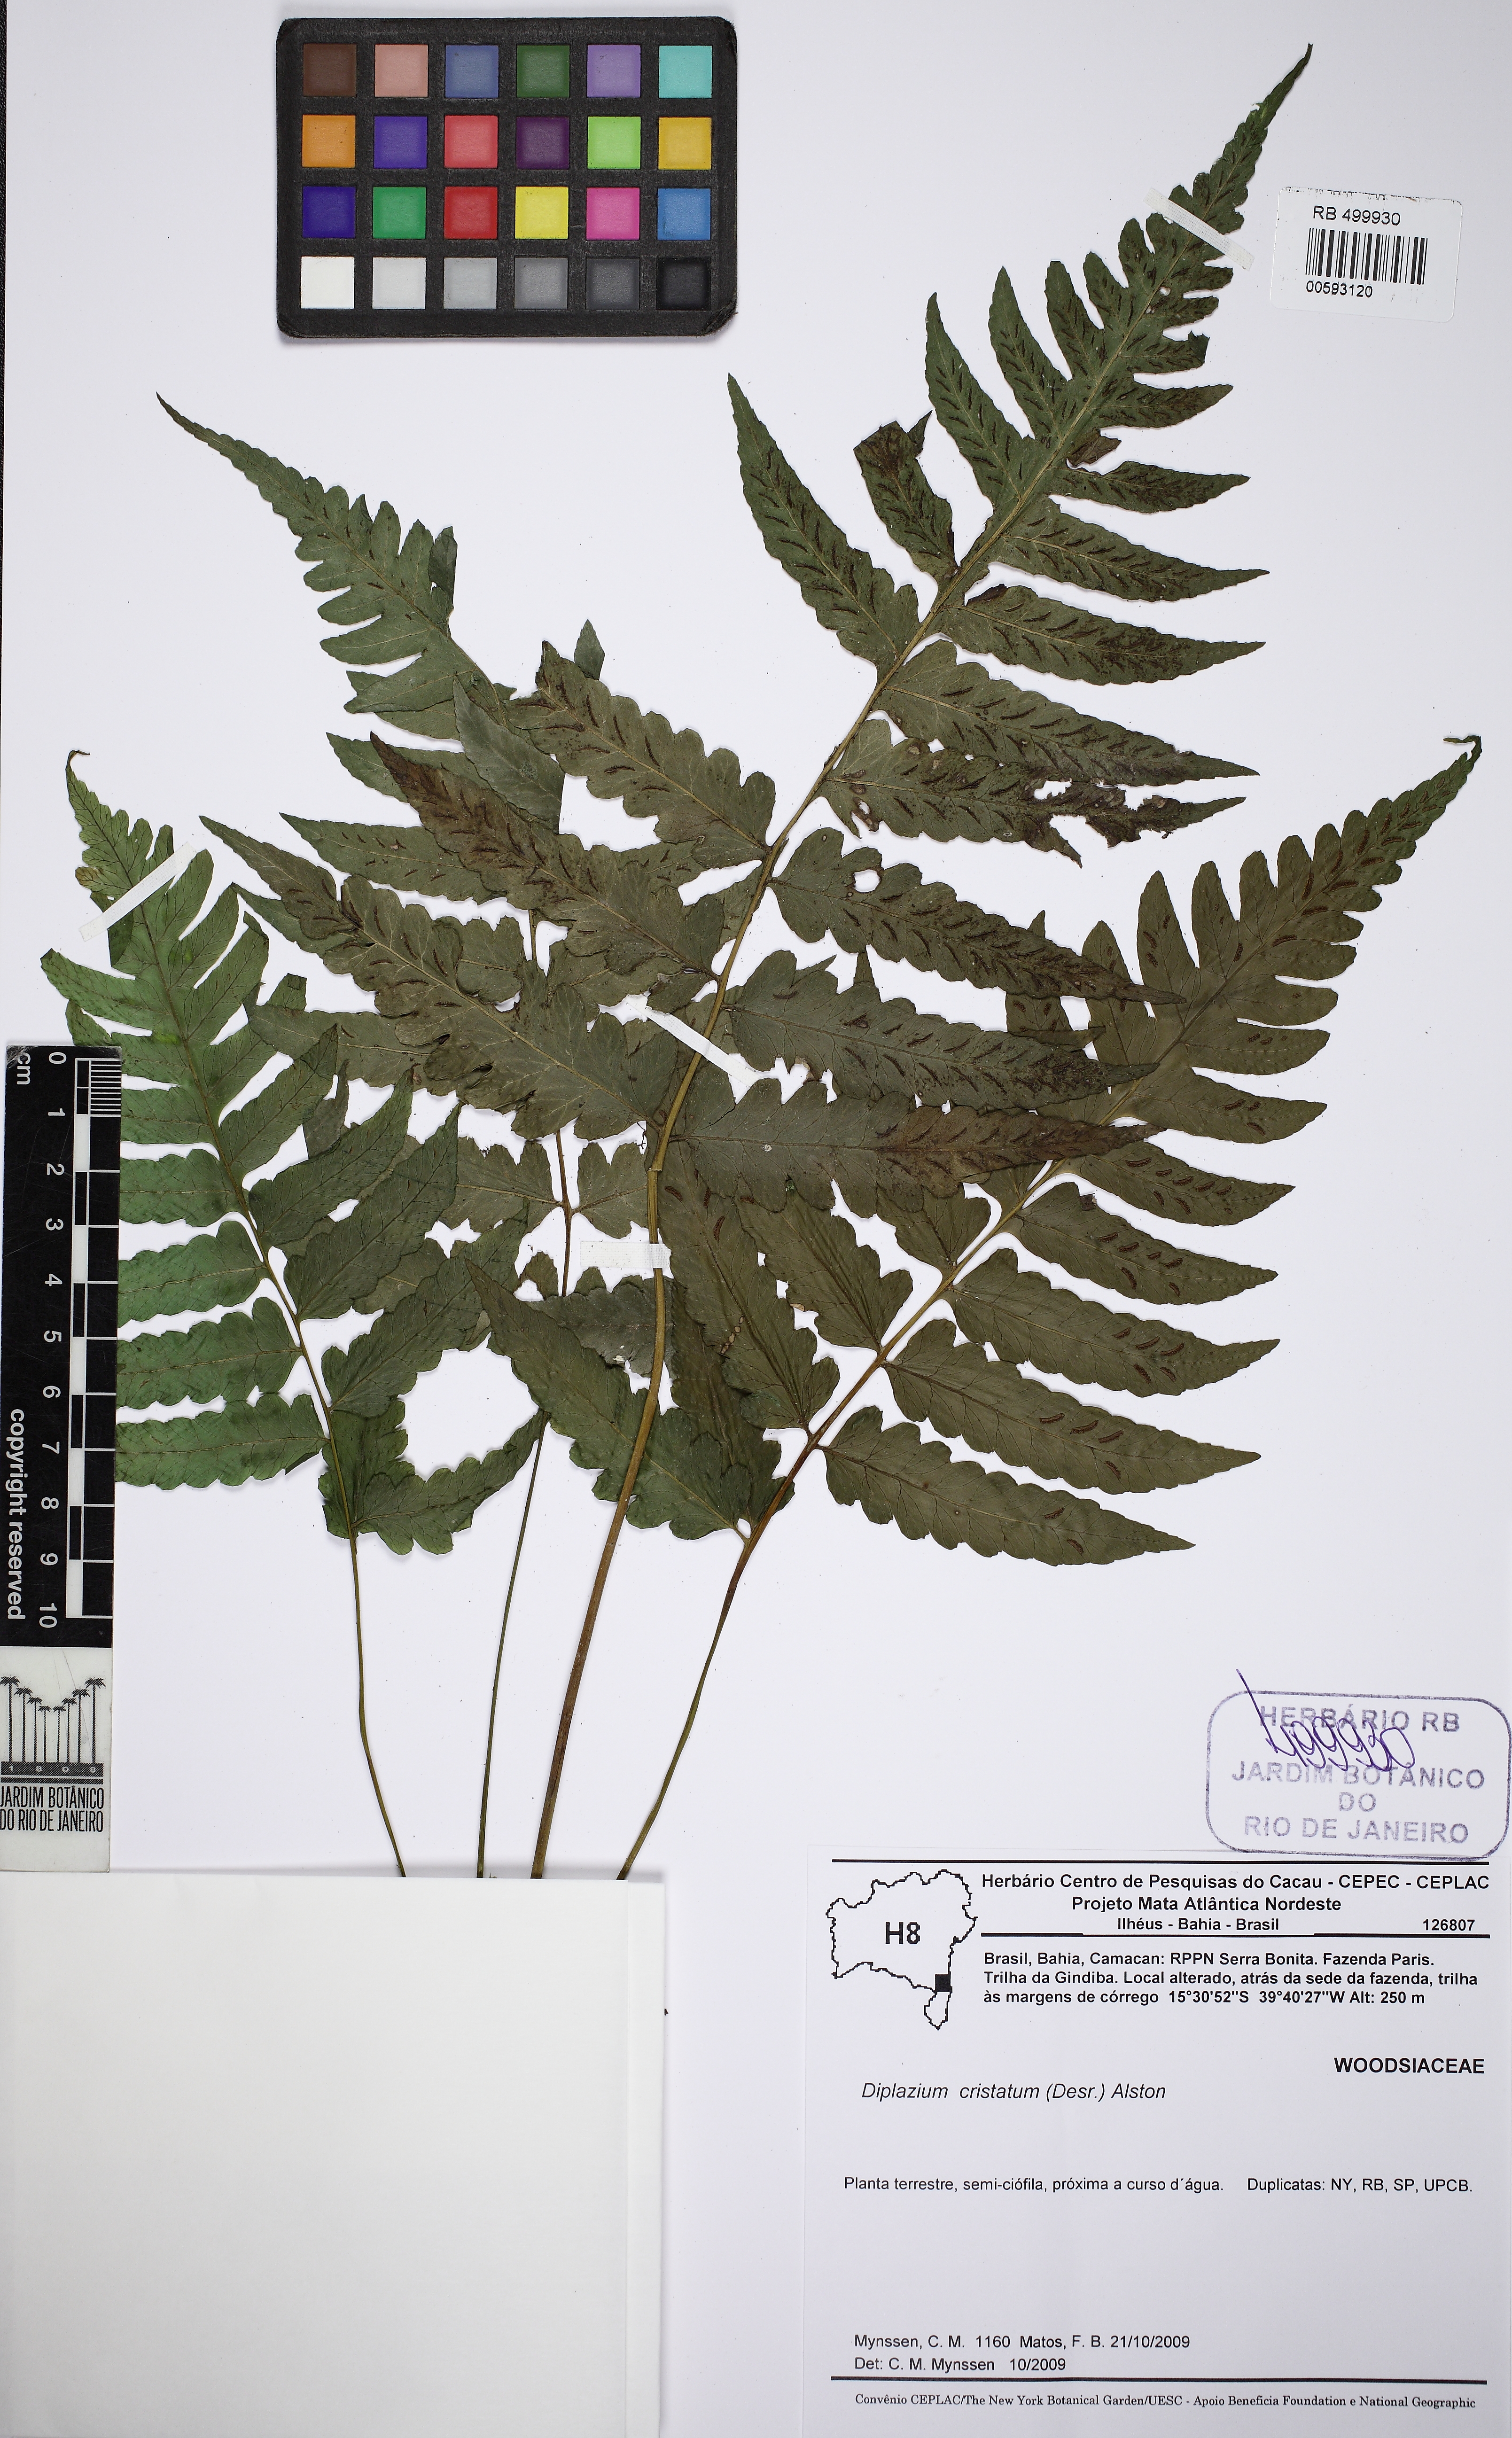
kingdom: Plantae
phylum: Tracheophyta
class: Polypodiopsida
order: Polypodiales
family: Athyriaceae
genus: Diplazium
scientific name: Diplazium cristatum
